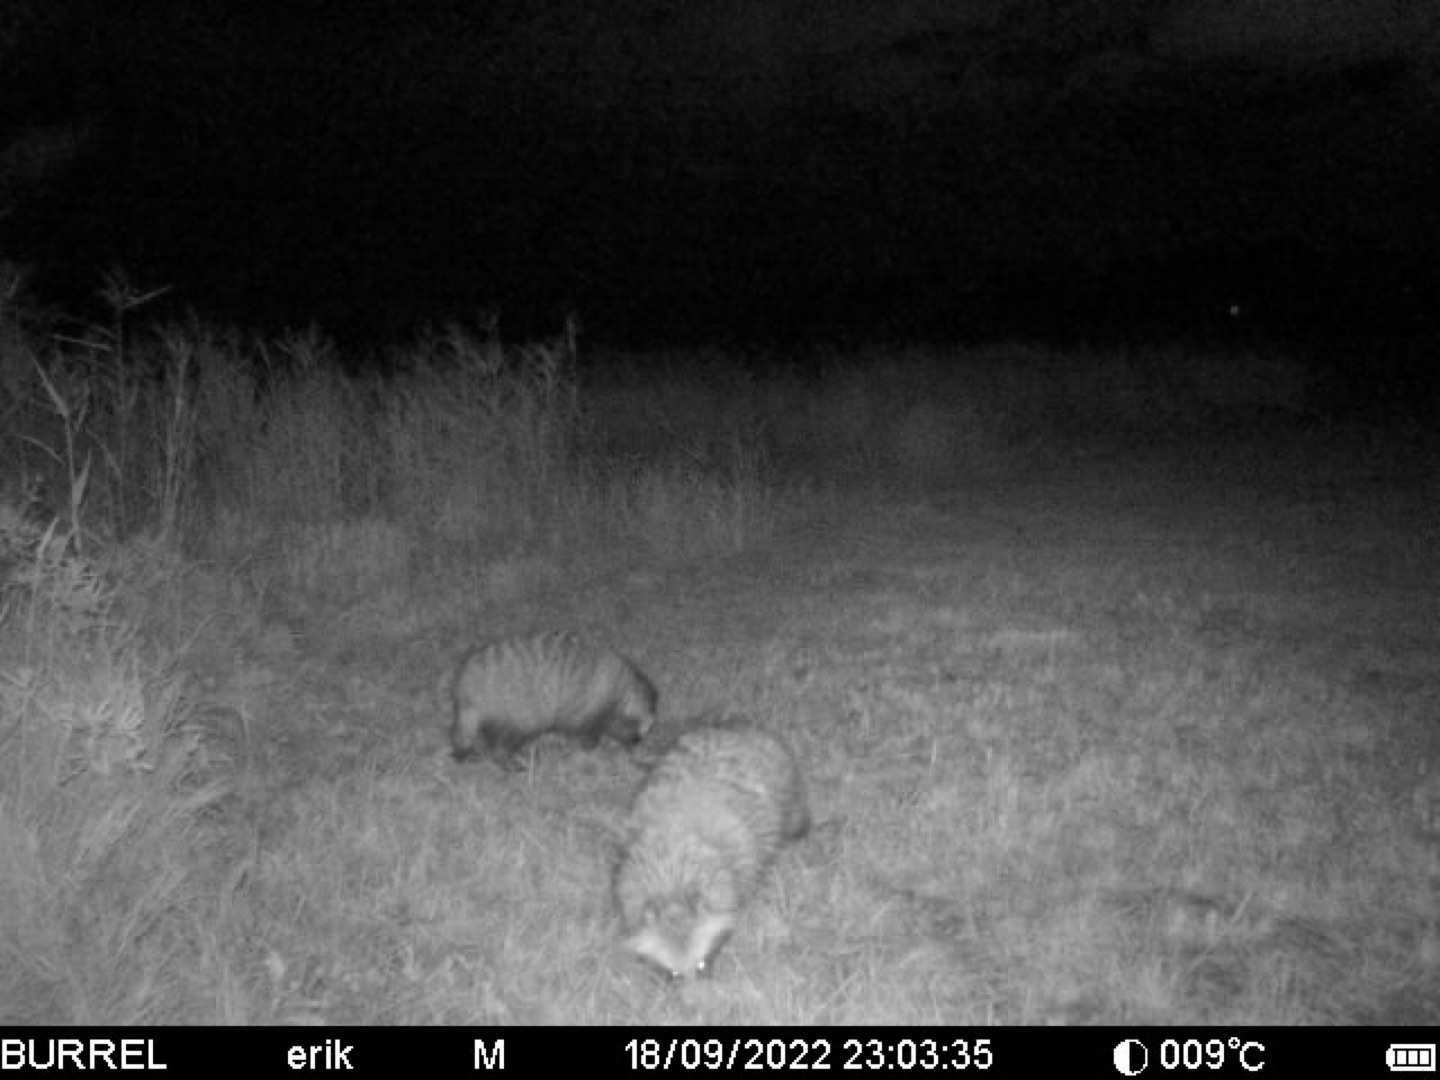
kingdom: Animalia
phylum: Chordata
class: Mammalia
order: Carnivora
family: Canidae
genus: Nyctereutes
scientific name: Nyctereutes procyonoides
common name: Mårhund
